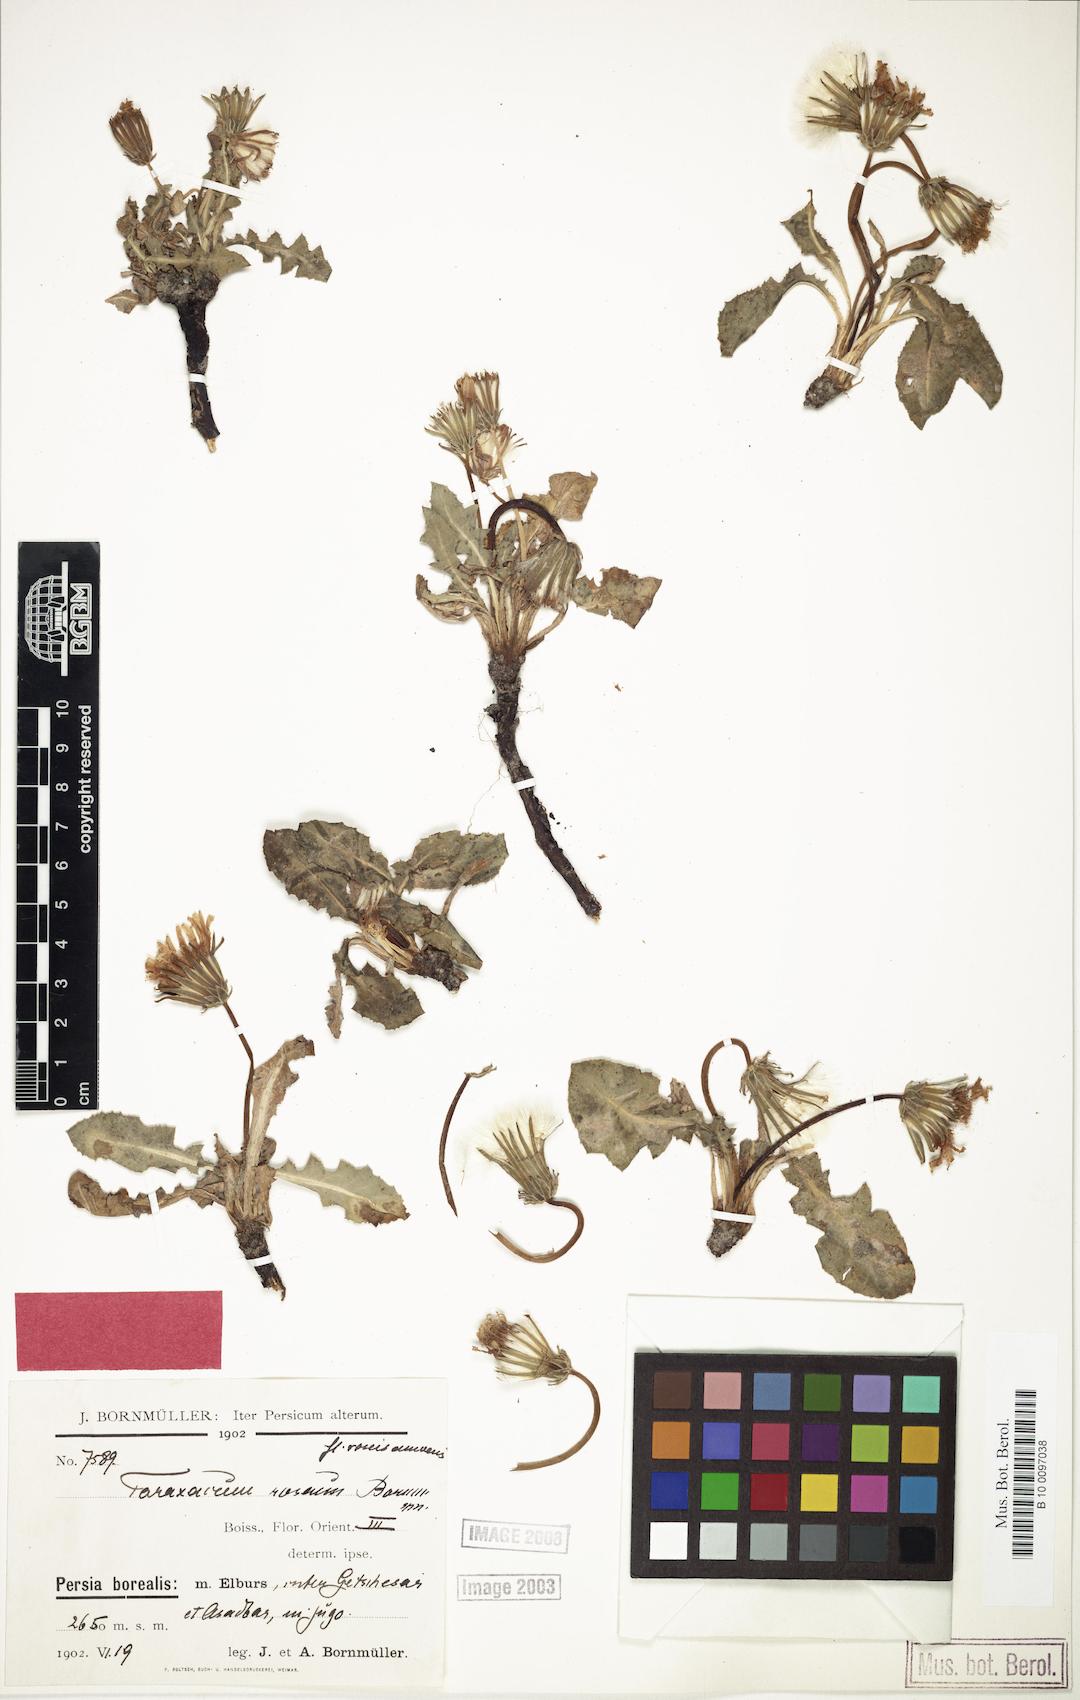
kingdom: Plantae
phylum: Tracheophyta
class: Magnoliopsida
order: Asterales
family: Asteraceae
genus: Taraxacum
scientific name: Taraxacum roseum
